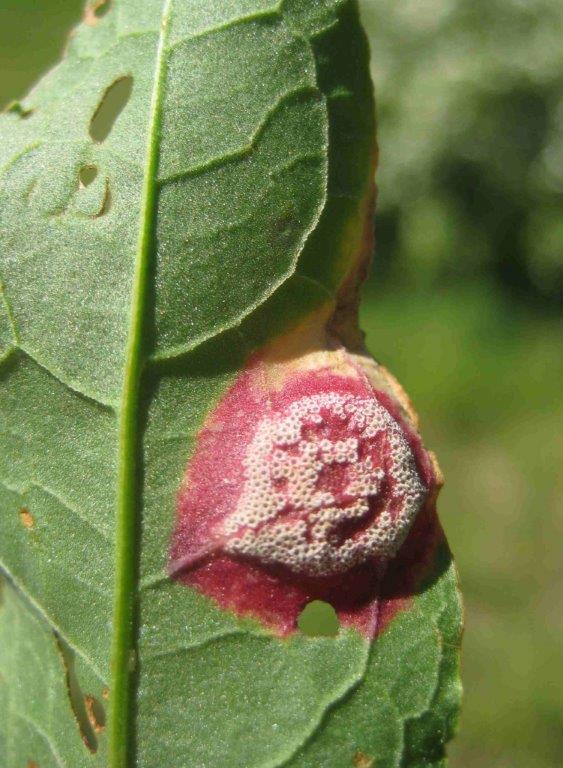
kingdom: Fungi
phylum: Basidiomycota
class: Pucciniomycetes
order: Pucciniales
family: Pucciniaceae
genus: Puccinia
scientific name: Puccinia phragmitis
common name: tagrør-tvecellerust
